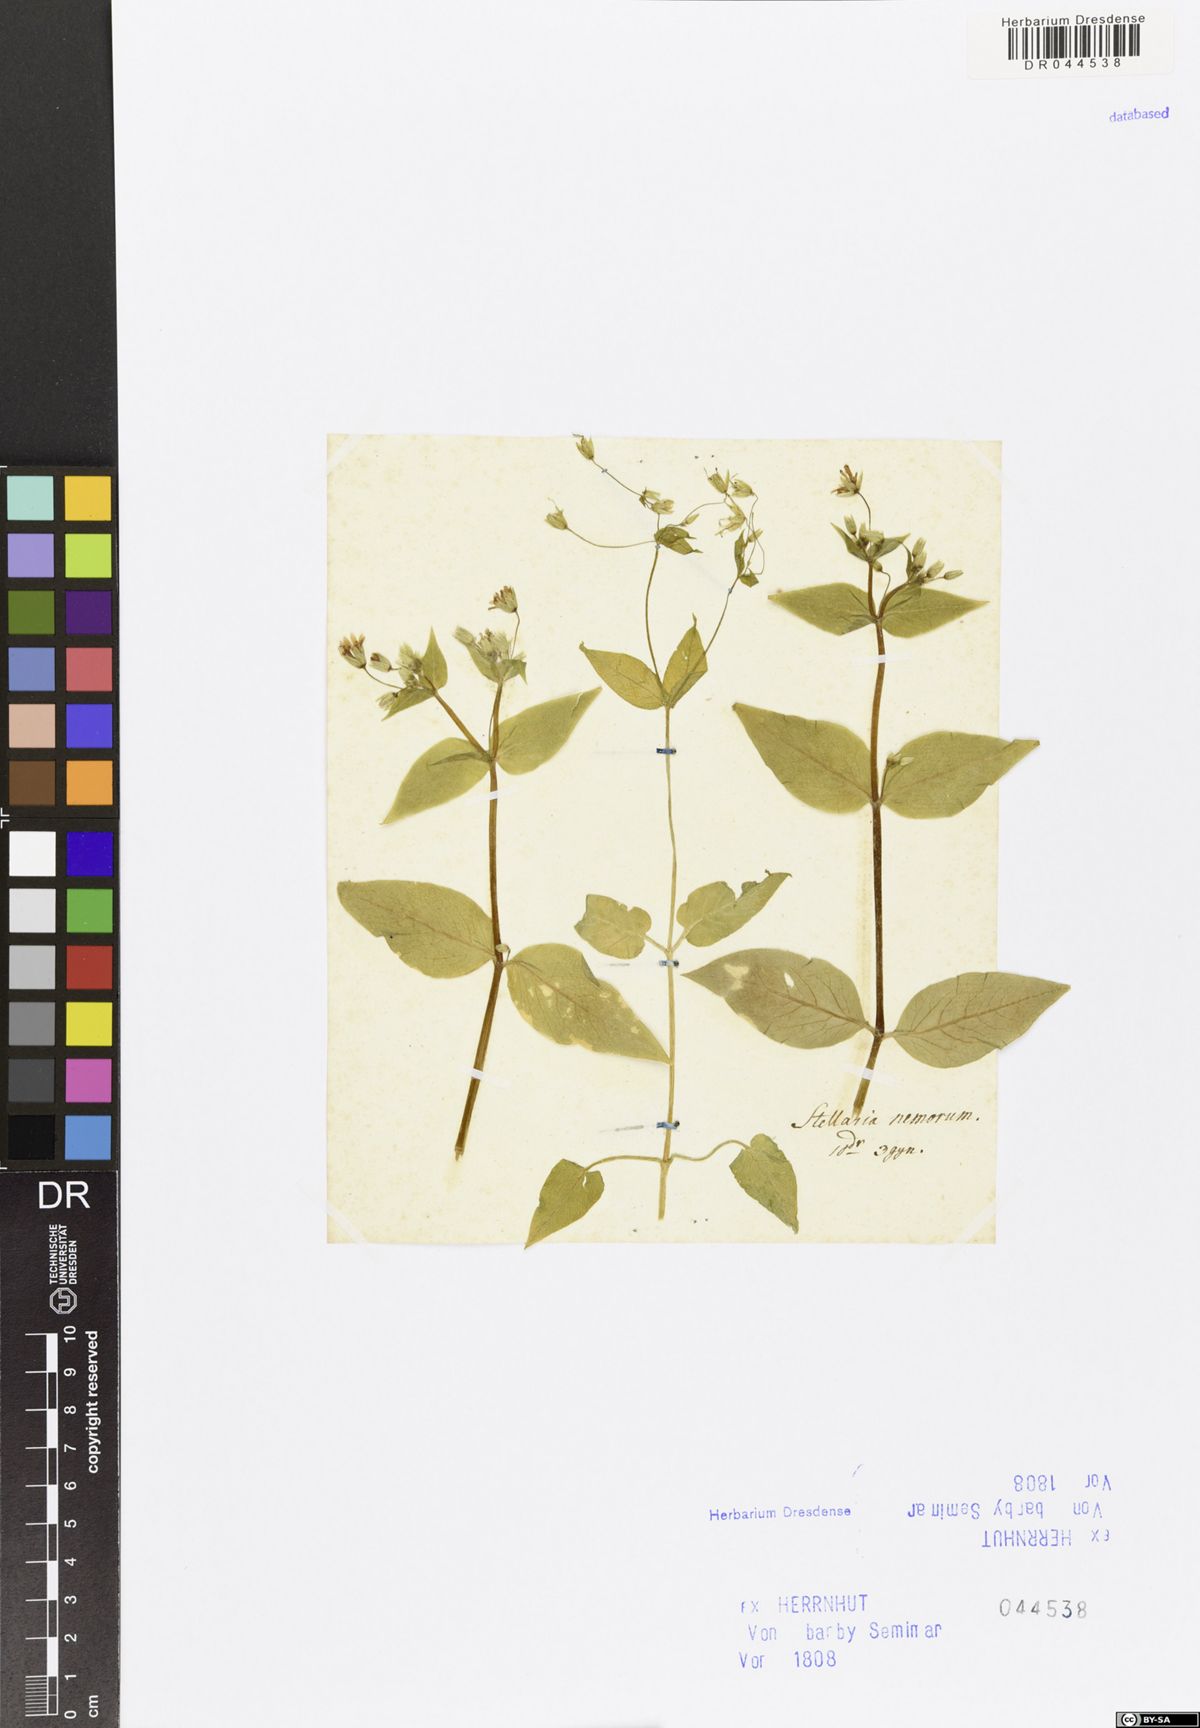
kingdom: Plantae
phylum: Tracheophyta
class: Magnoliopsida
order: Caryophyllales
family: Caryophyllaceae
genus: Stellaria
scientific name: Stellaria nemorum
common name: Wood stitchwort
